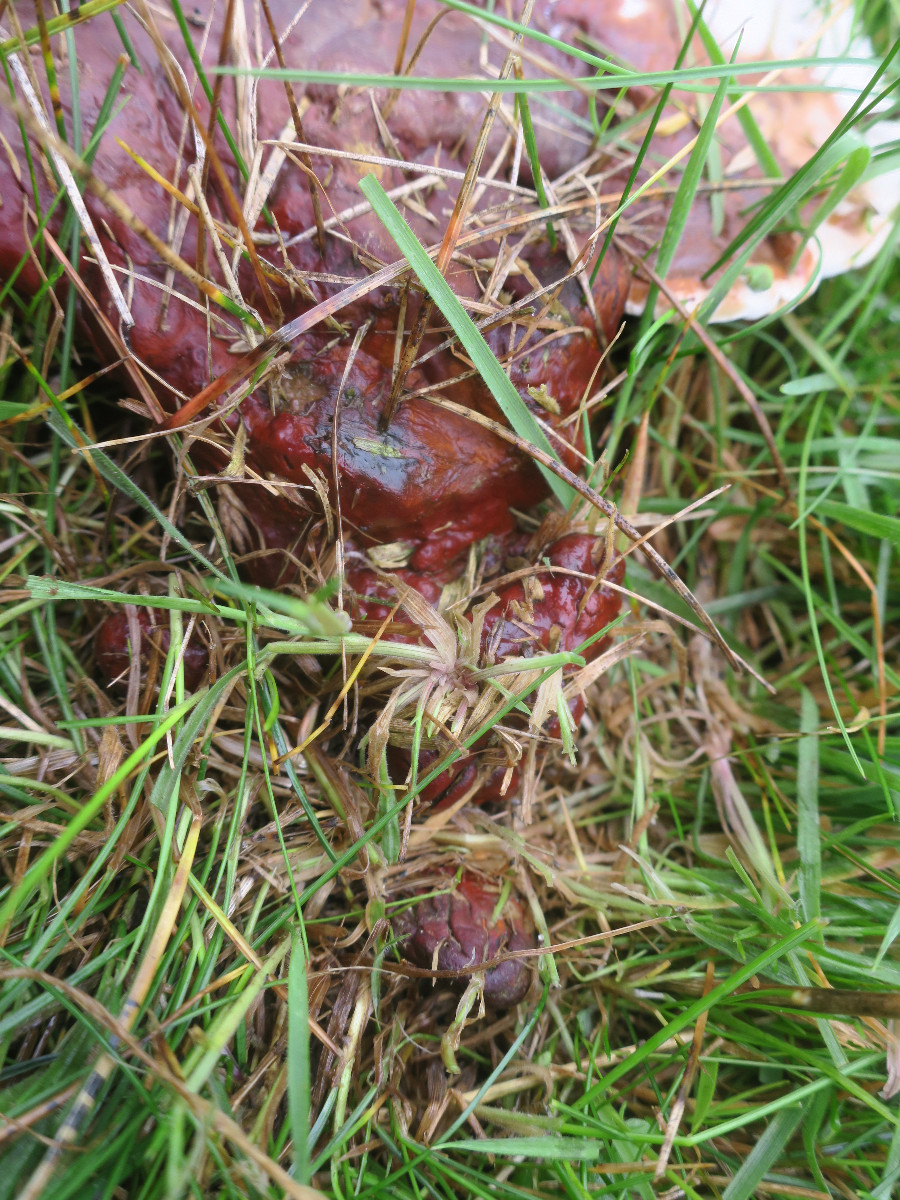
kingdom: Fungi
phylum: Basidiomycota
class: Agaricomycetes
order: Polyporales
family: Polyporaceae
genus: Ganoderma
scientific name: Ganoderma lucidum
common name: skinnende lakporesvamp
